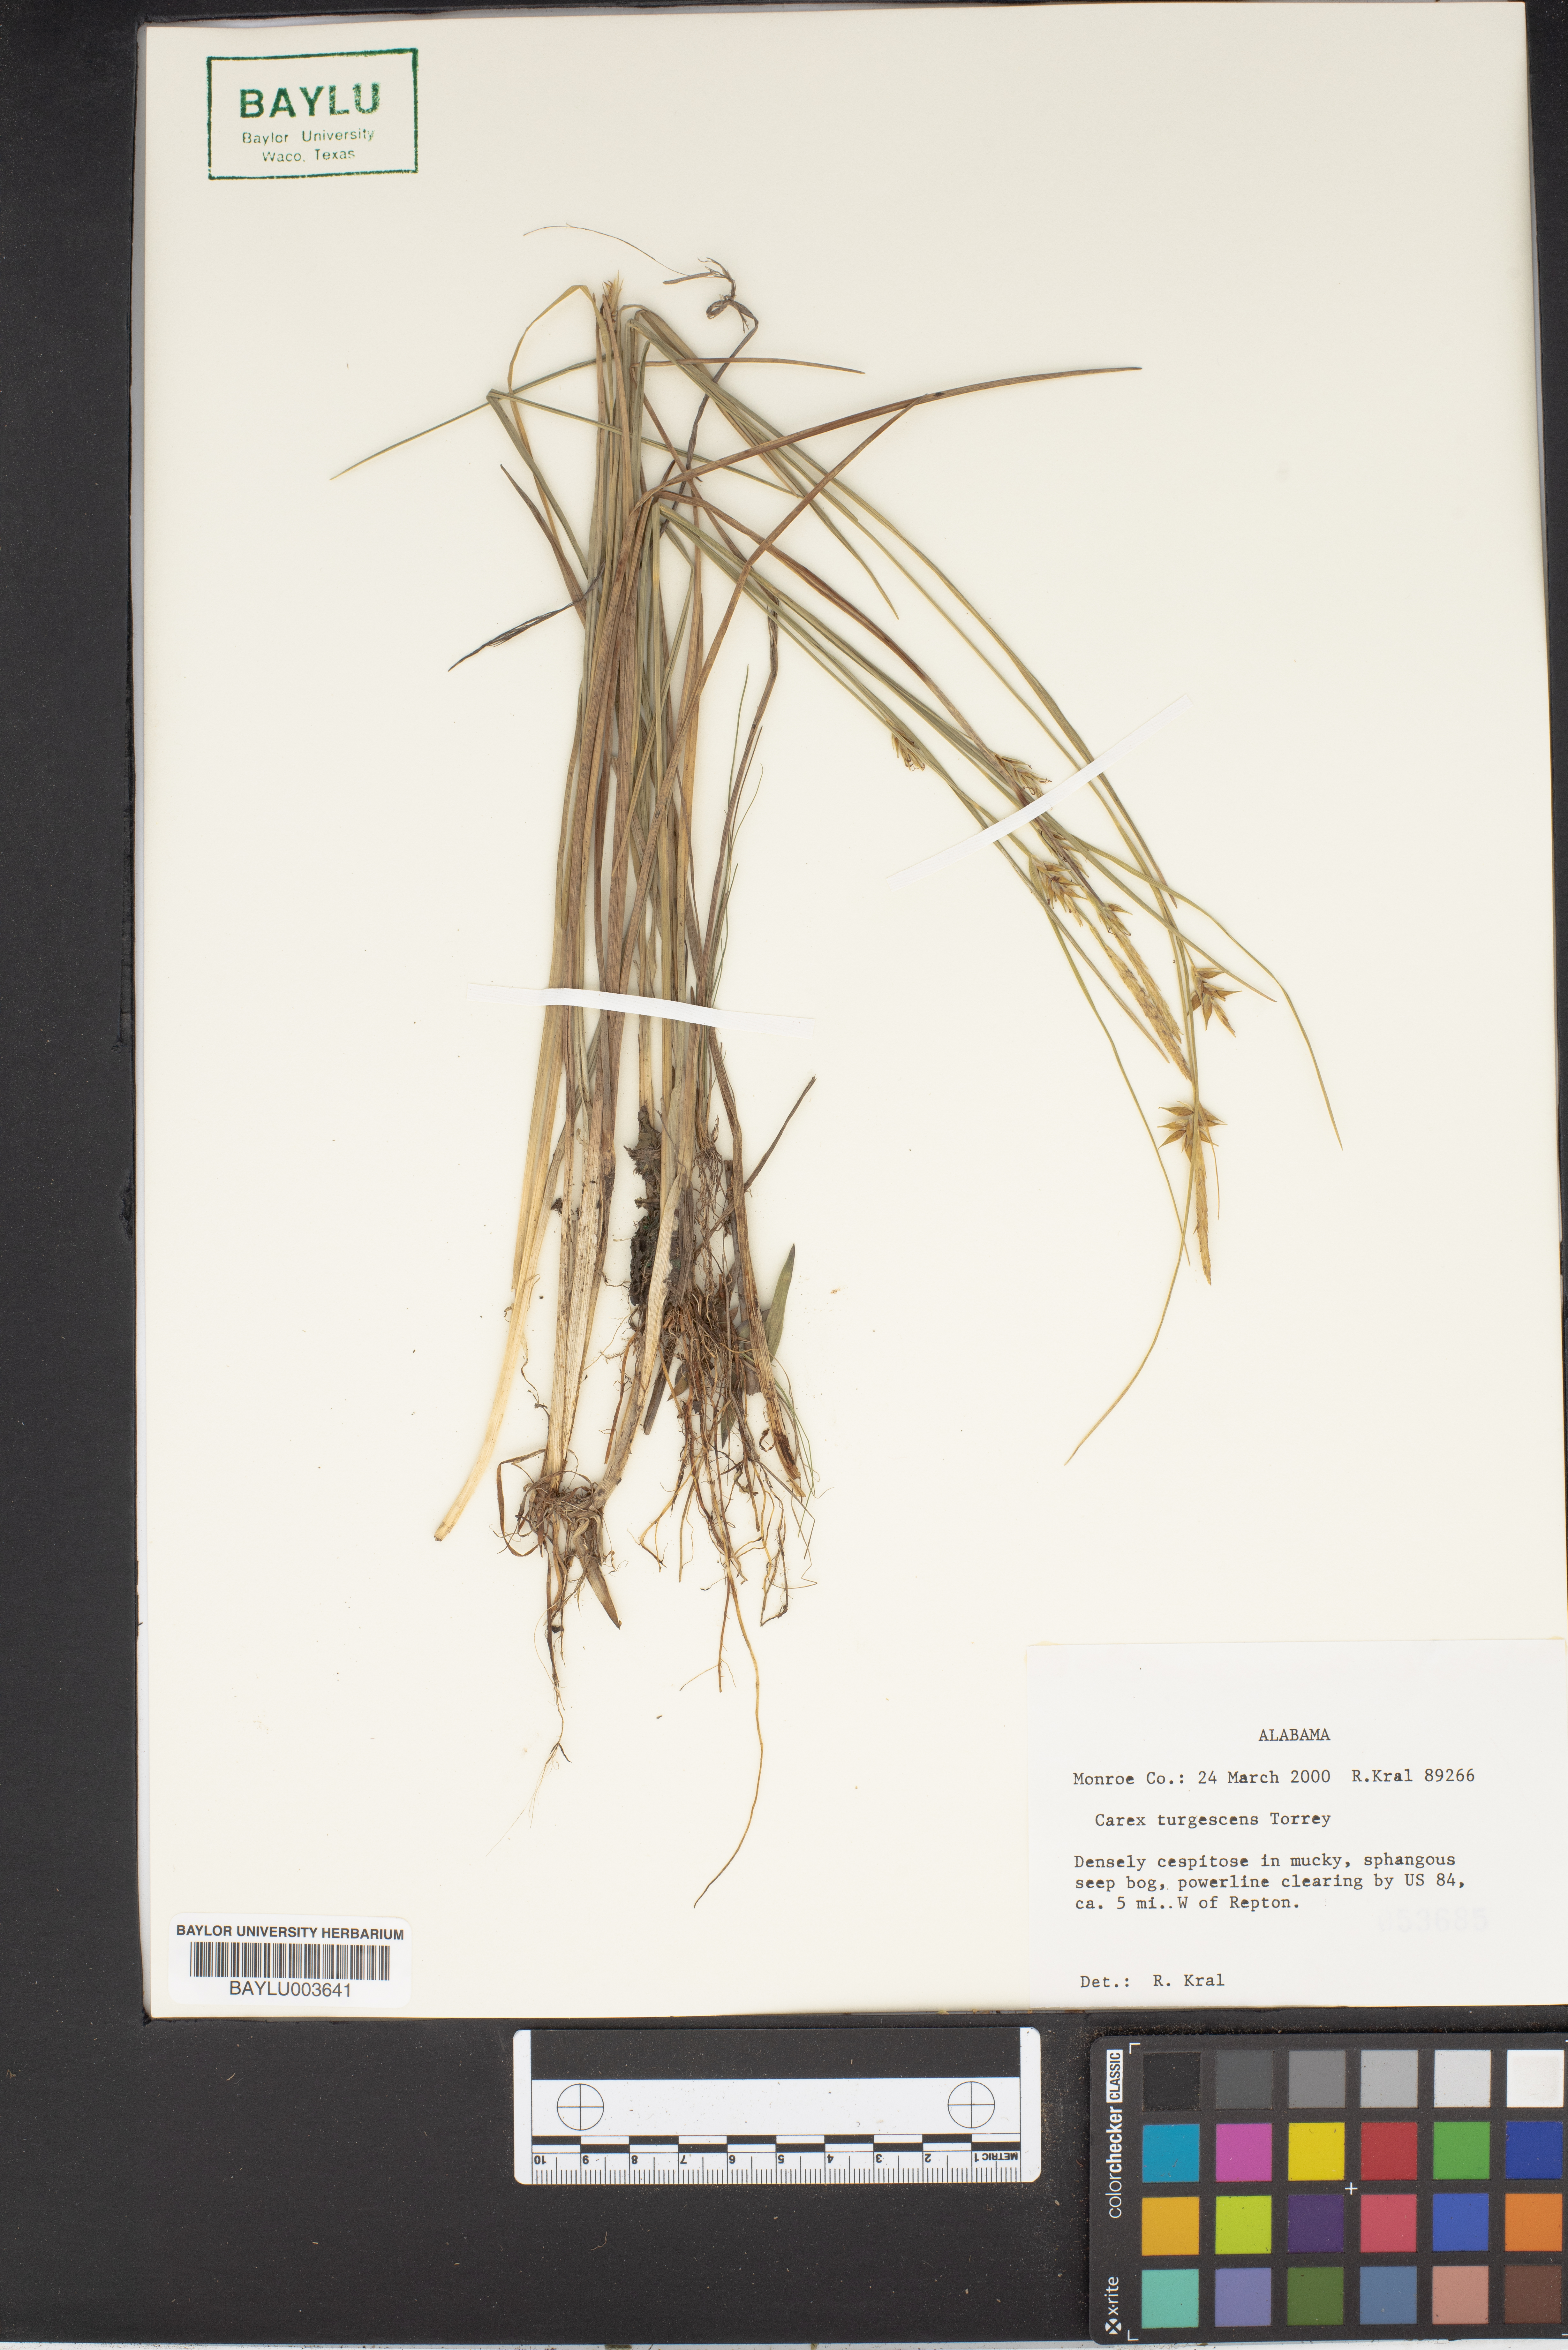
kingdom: Plantae
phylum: Tracheophyta
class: Liliopsida
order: Poales
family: Cyperaceae
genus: Carex
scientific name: Carex turgescens
